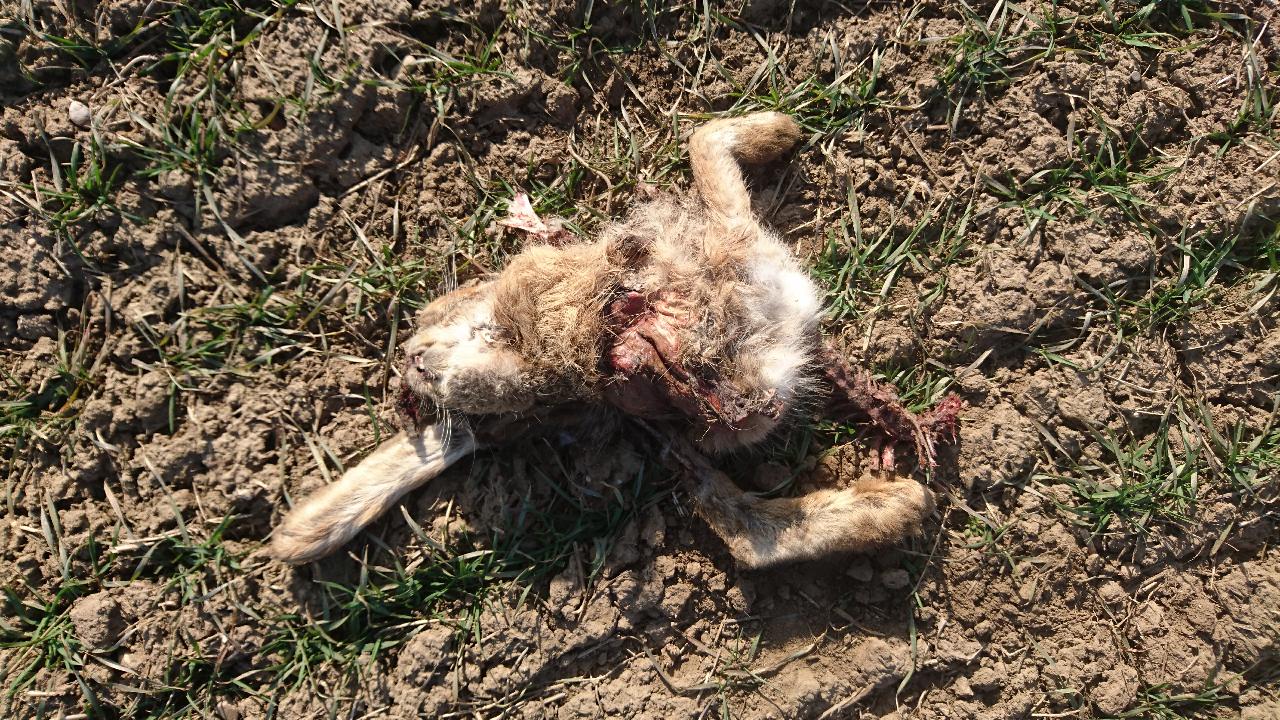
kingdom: Animalia
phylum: Chordata
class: Mammalia
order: Lagomorpha
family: Leporidae
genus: Lepus
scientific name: Lepus europaeus
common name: European hare
